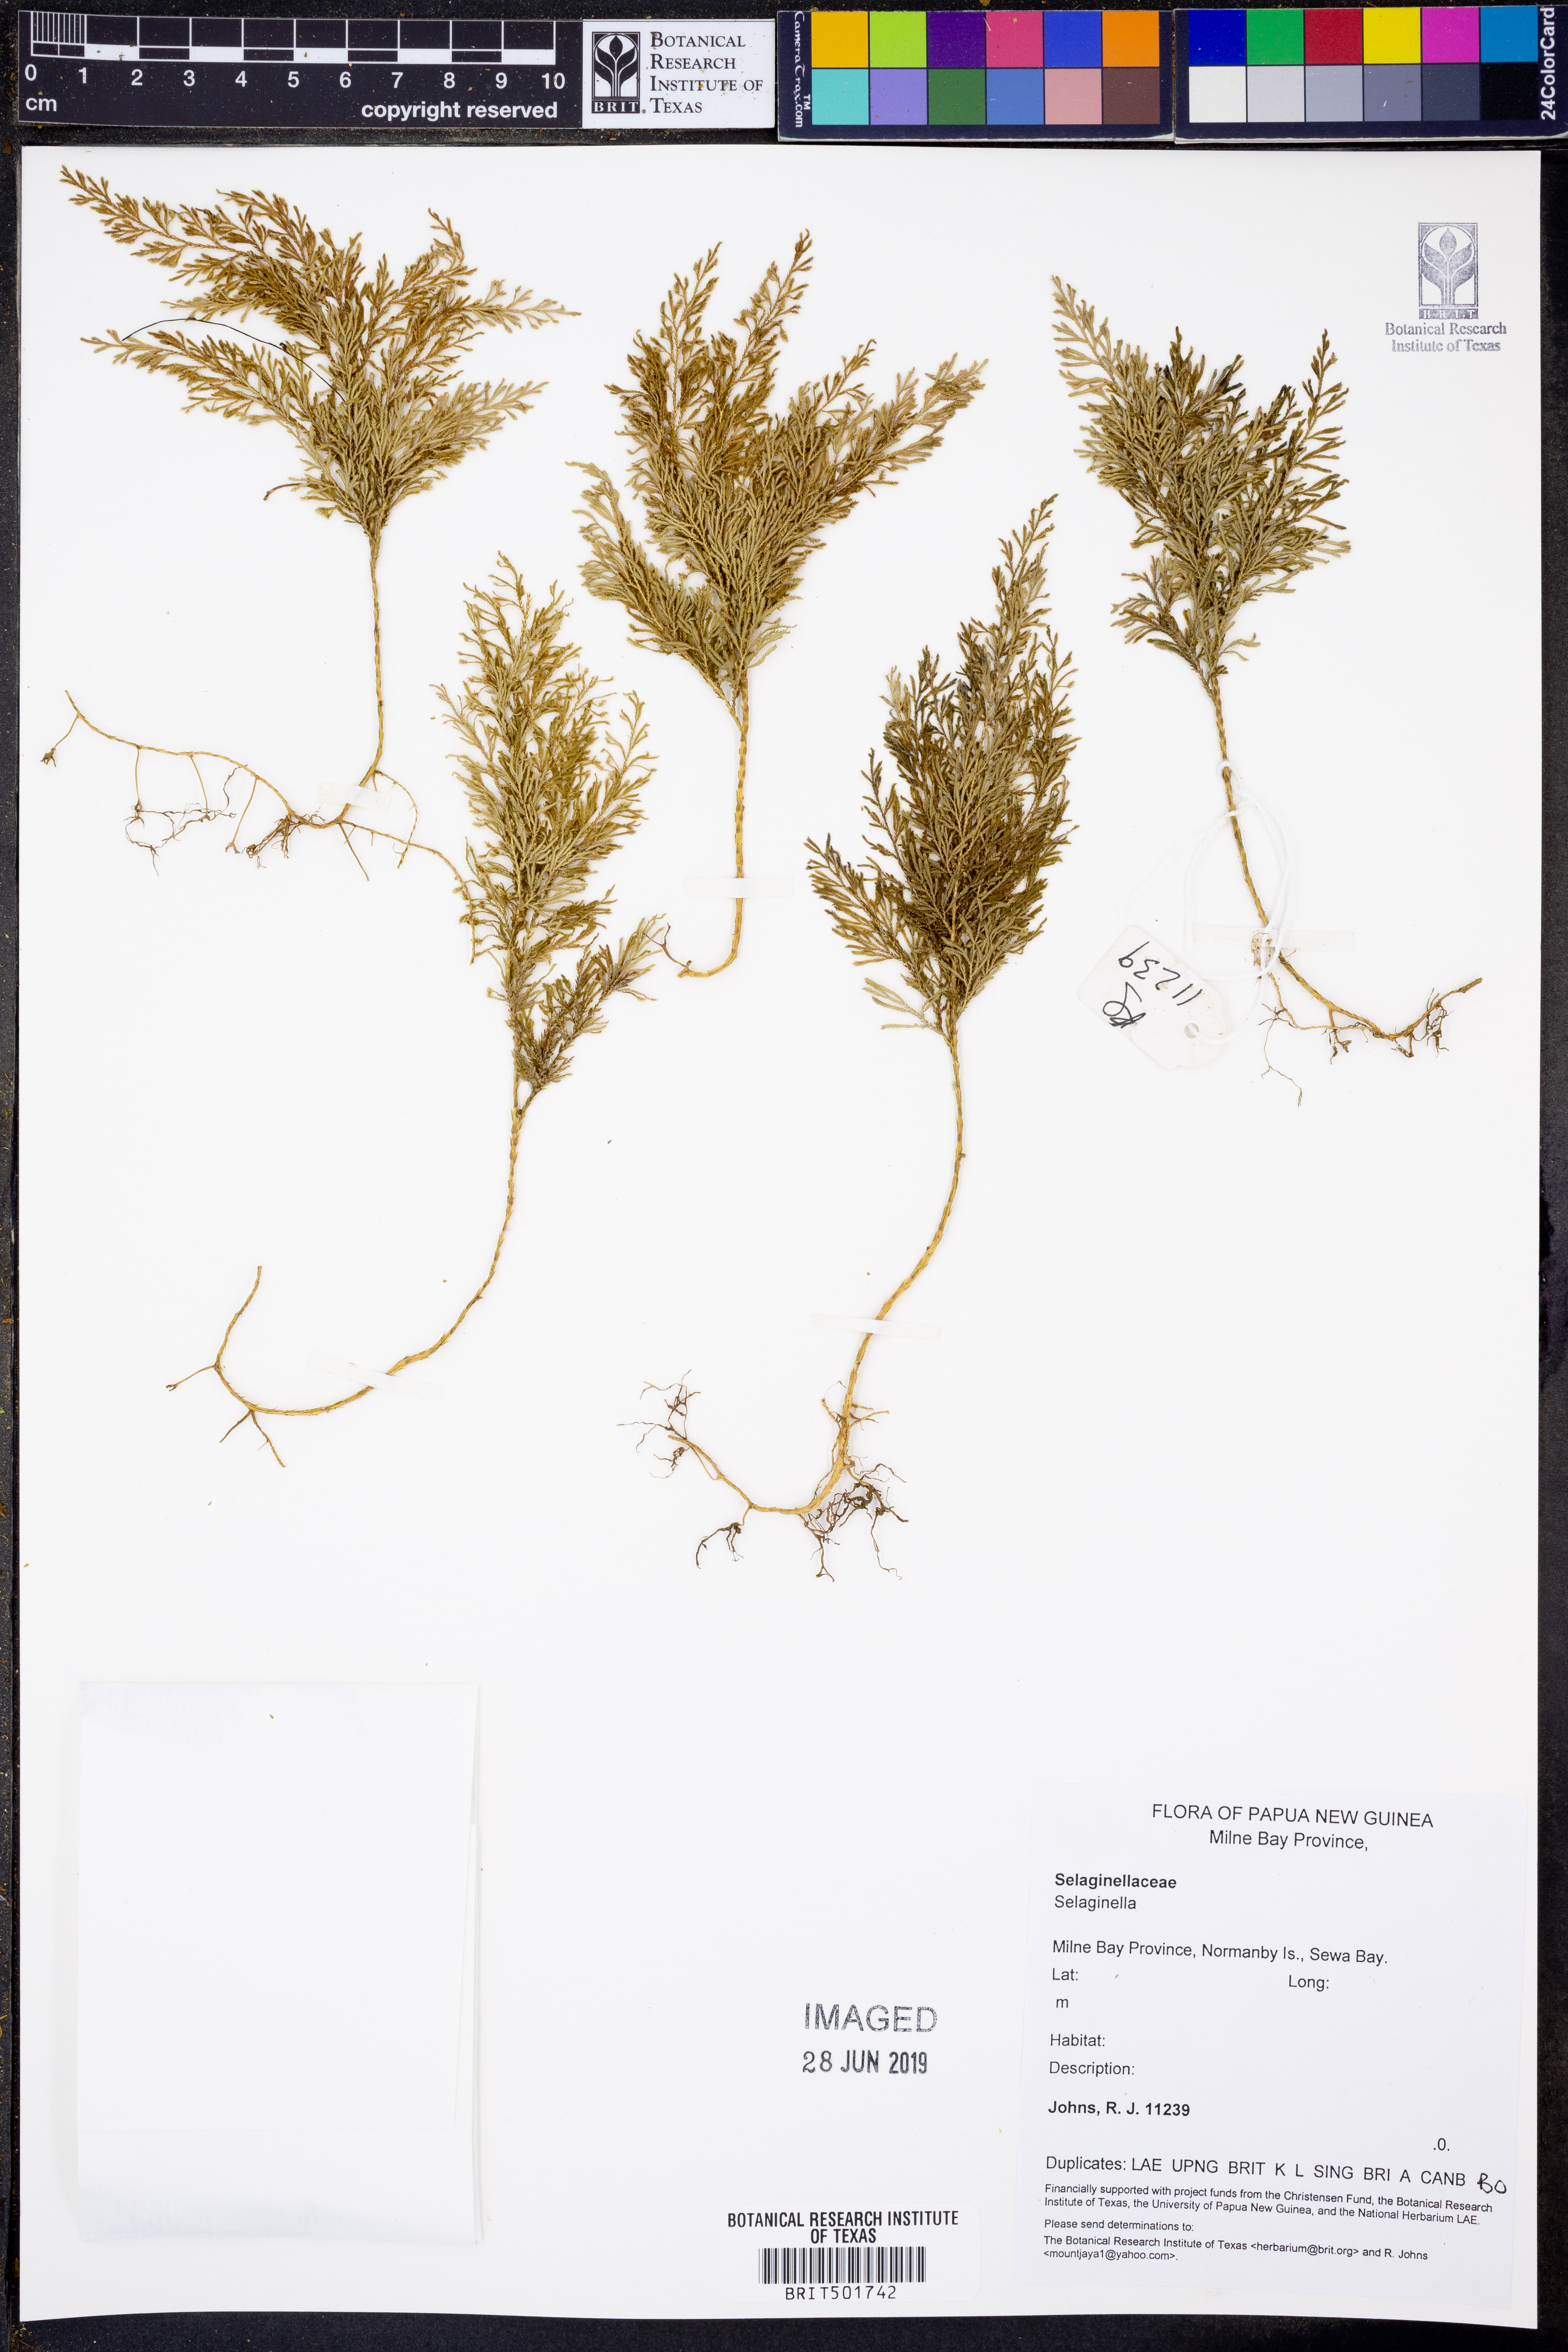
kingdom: Plantae
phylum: Tracheophyta
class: Lycopodiopsida
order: Selaginellales
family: Selaginellaceae
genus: Selaginella
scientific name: Selaginella
